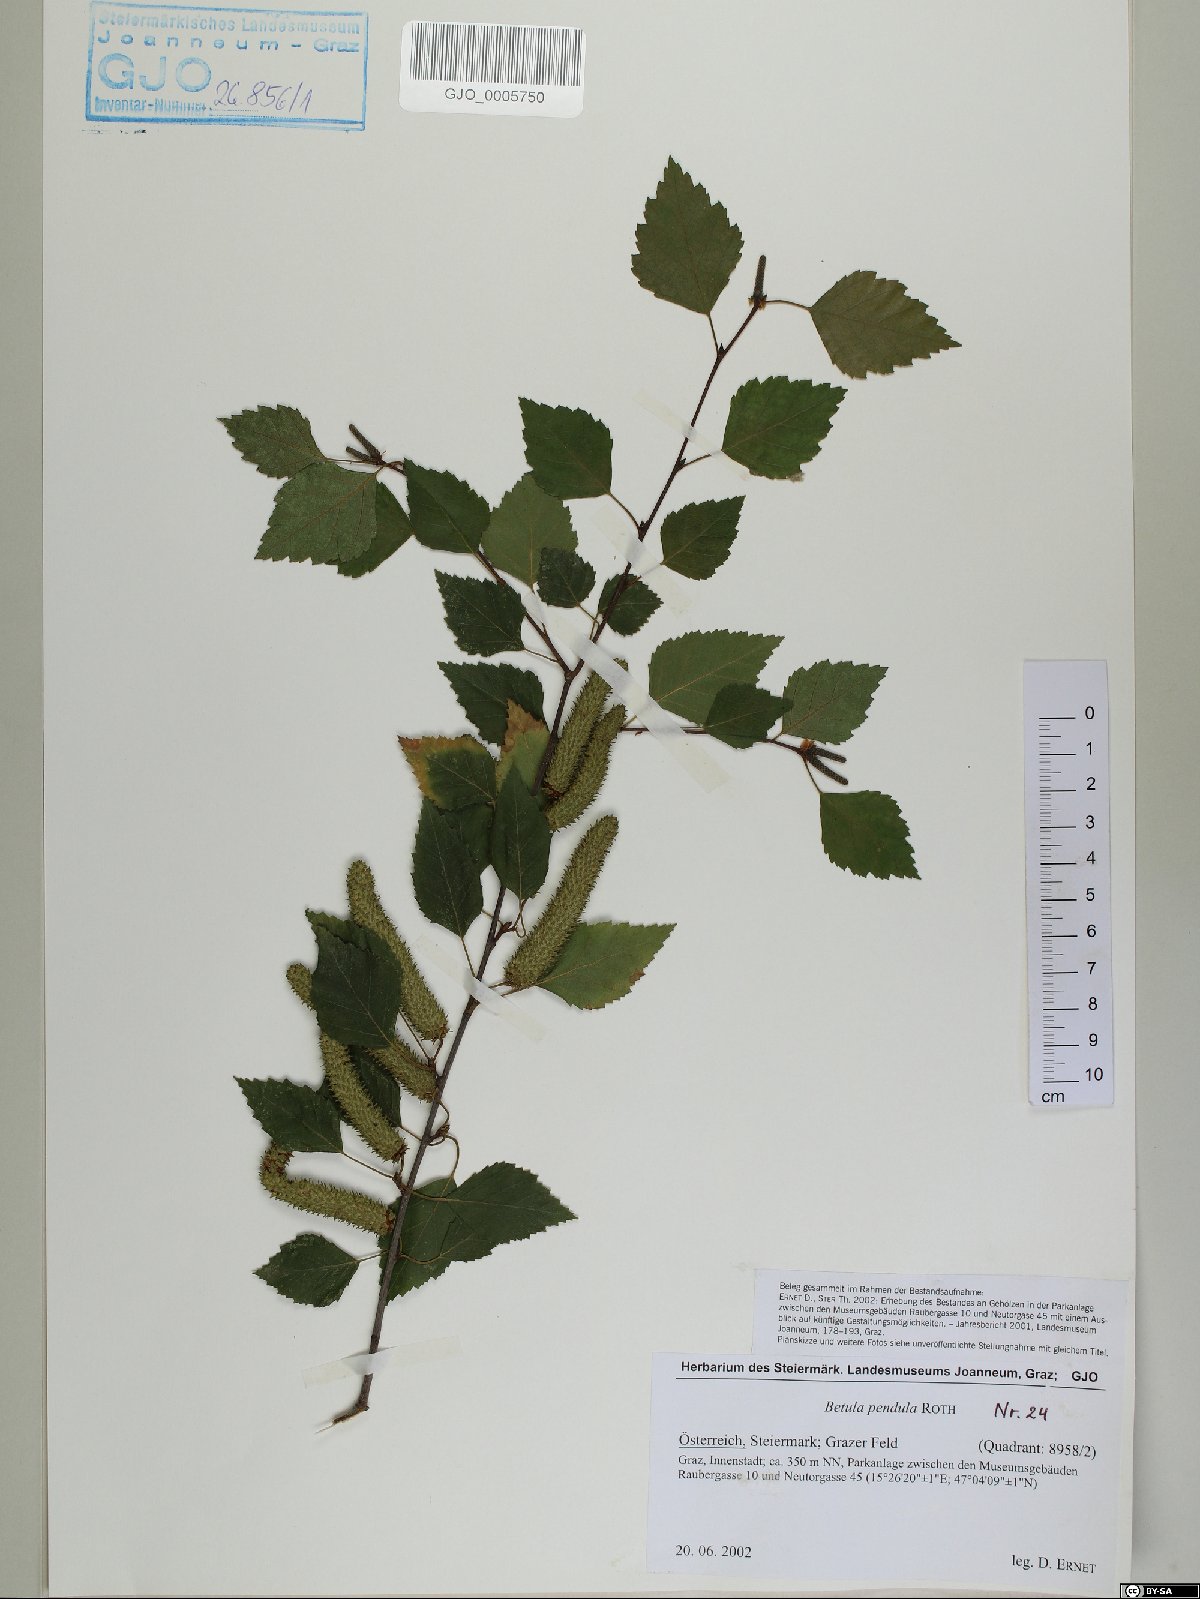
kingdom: Plantae
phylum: Tracheophyta
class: Magnoliopsida
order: Fagales
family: Betulaceae
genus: Betula
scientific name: Betula pendula
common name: Silver birch
